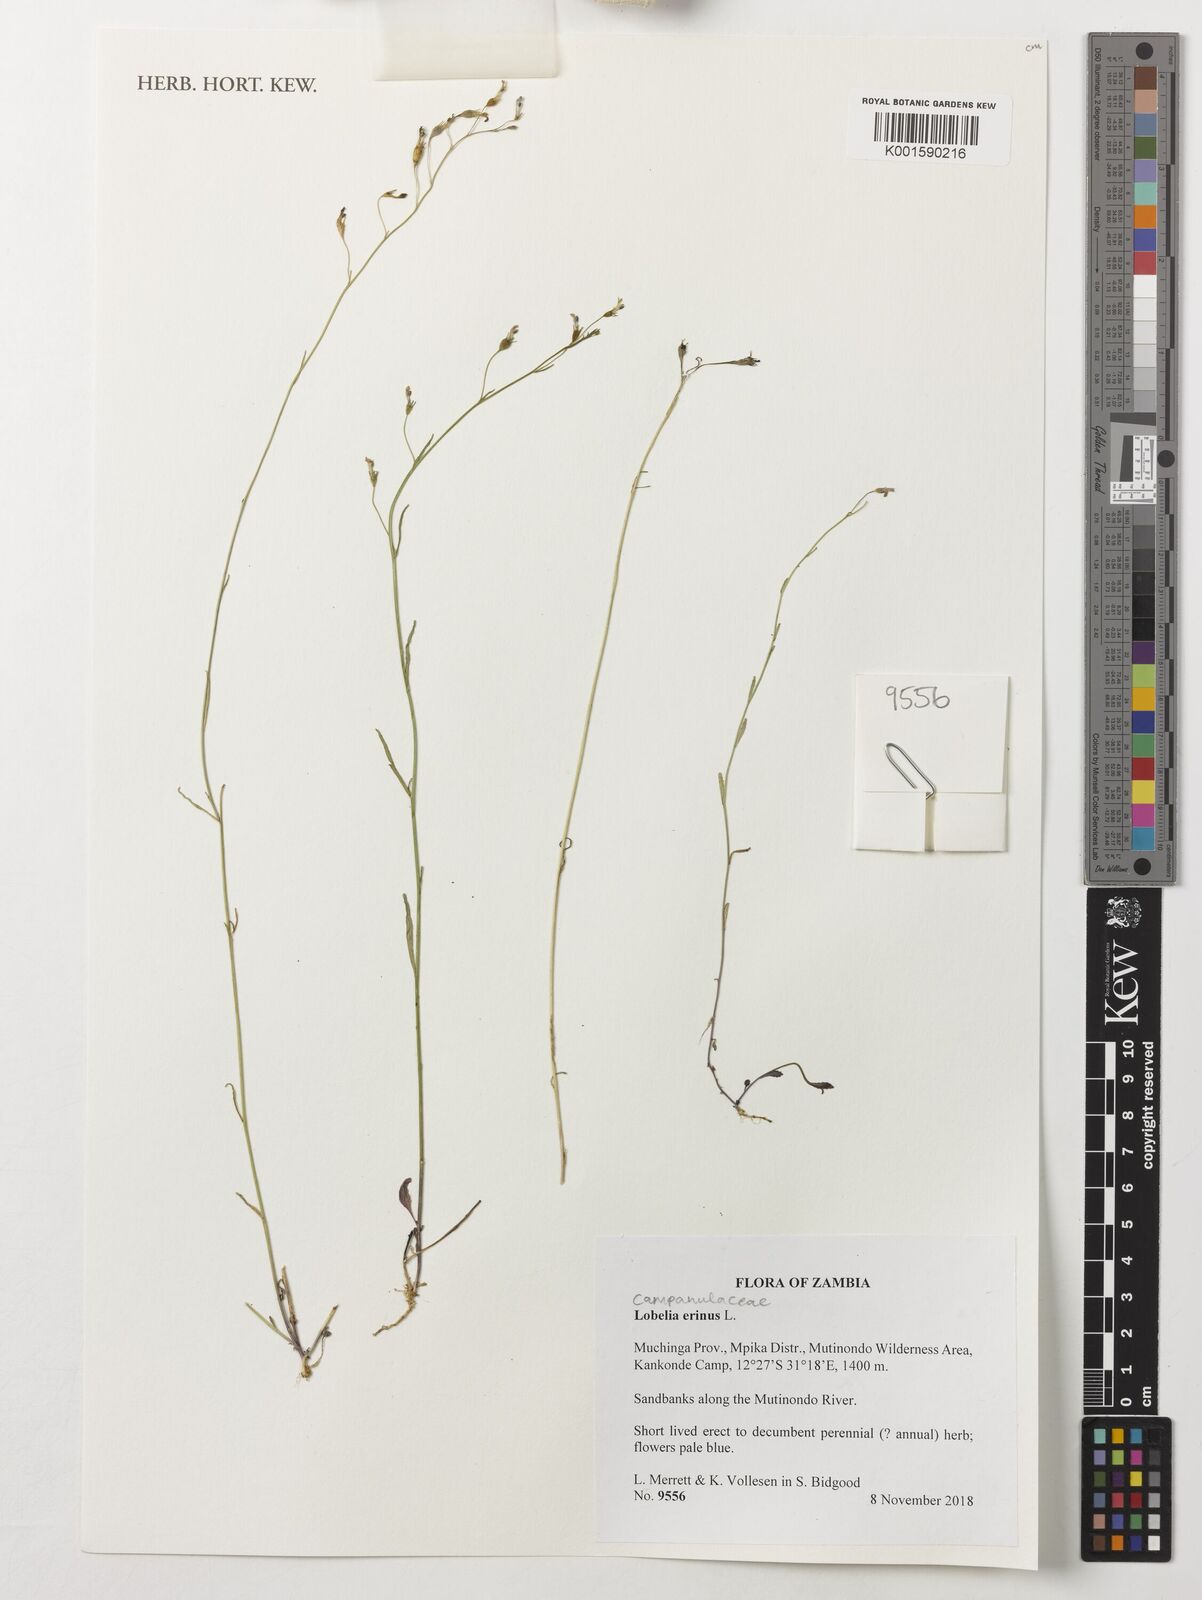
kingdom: Plantae
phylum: Tracheophyta
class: Magnoliopsida
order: Asterales
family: Campanulaceae
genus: Lobelia
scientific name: Lobelia erinus
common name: Edging lobelia
